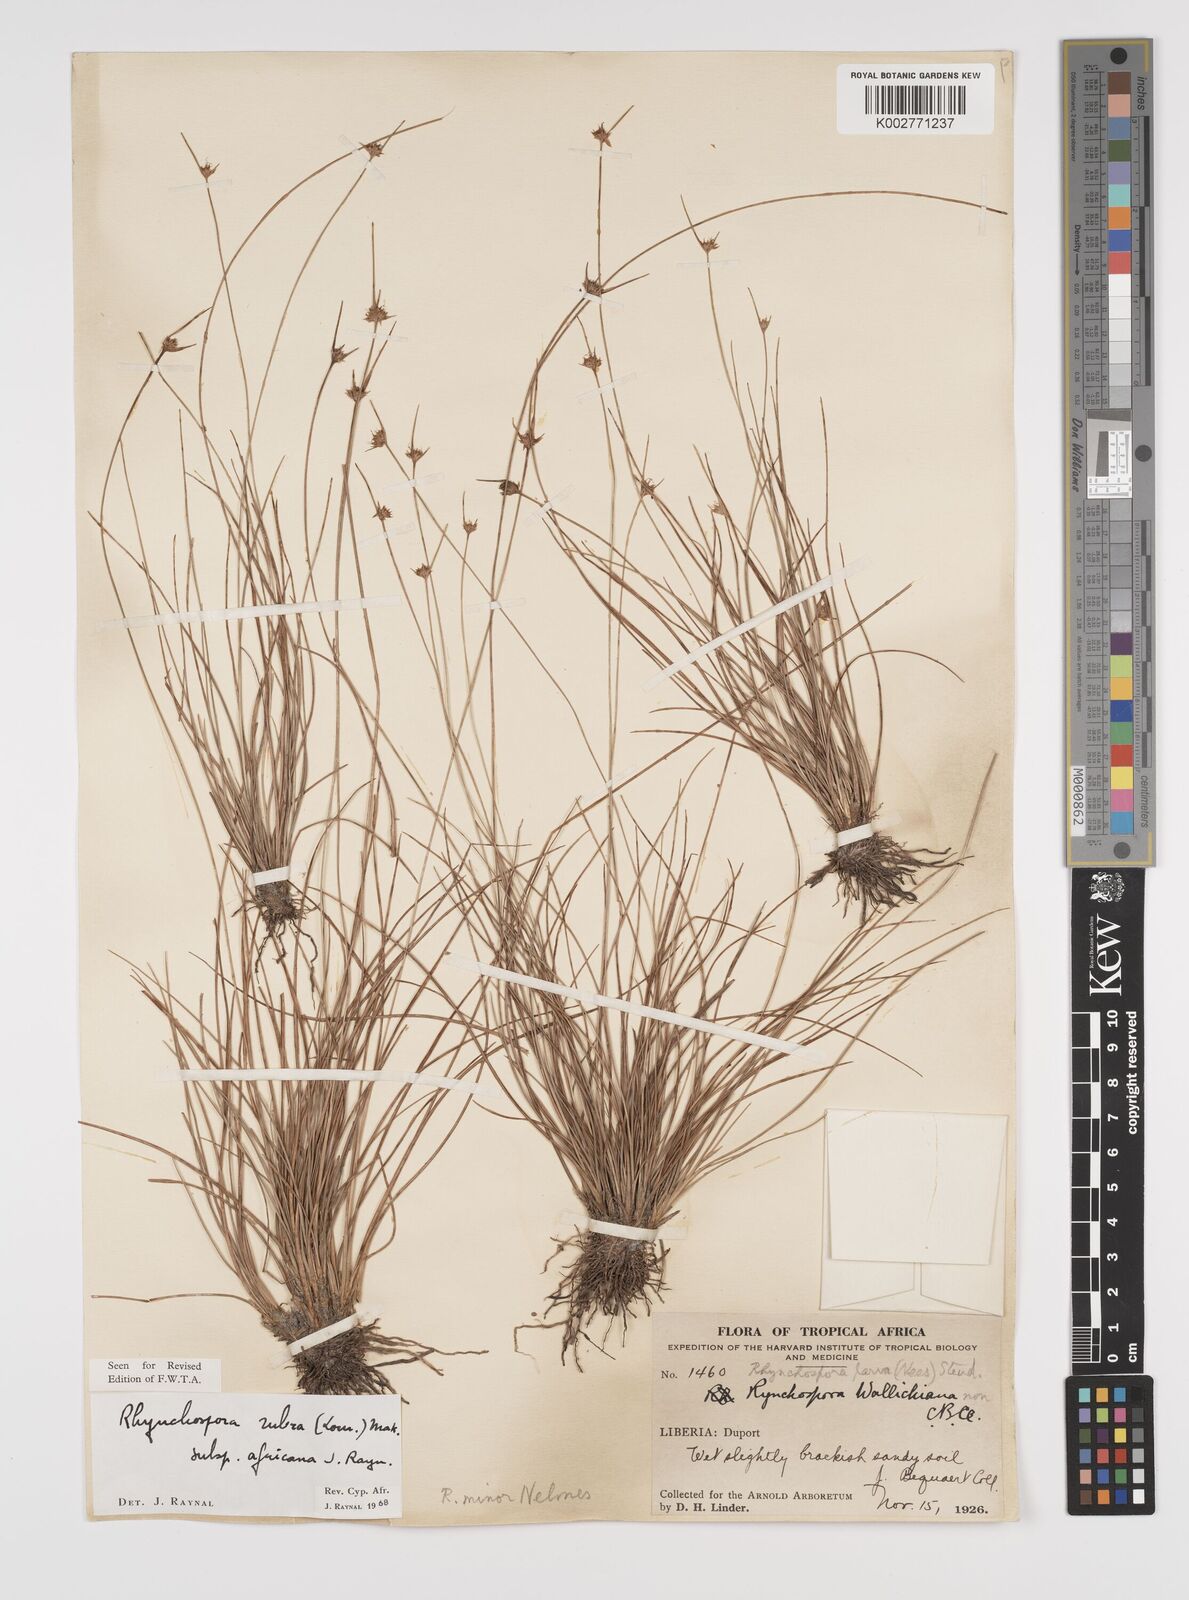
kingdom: Plantae
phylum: Tracheophyta
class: Liliopsida
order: Poales
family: Cyperaceae
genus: Rhynchospora
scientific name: Rhynchospora rubra
